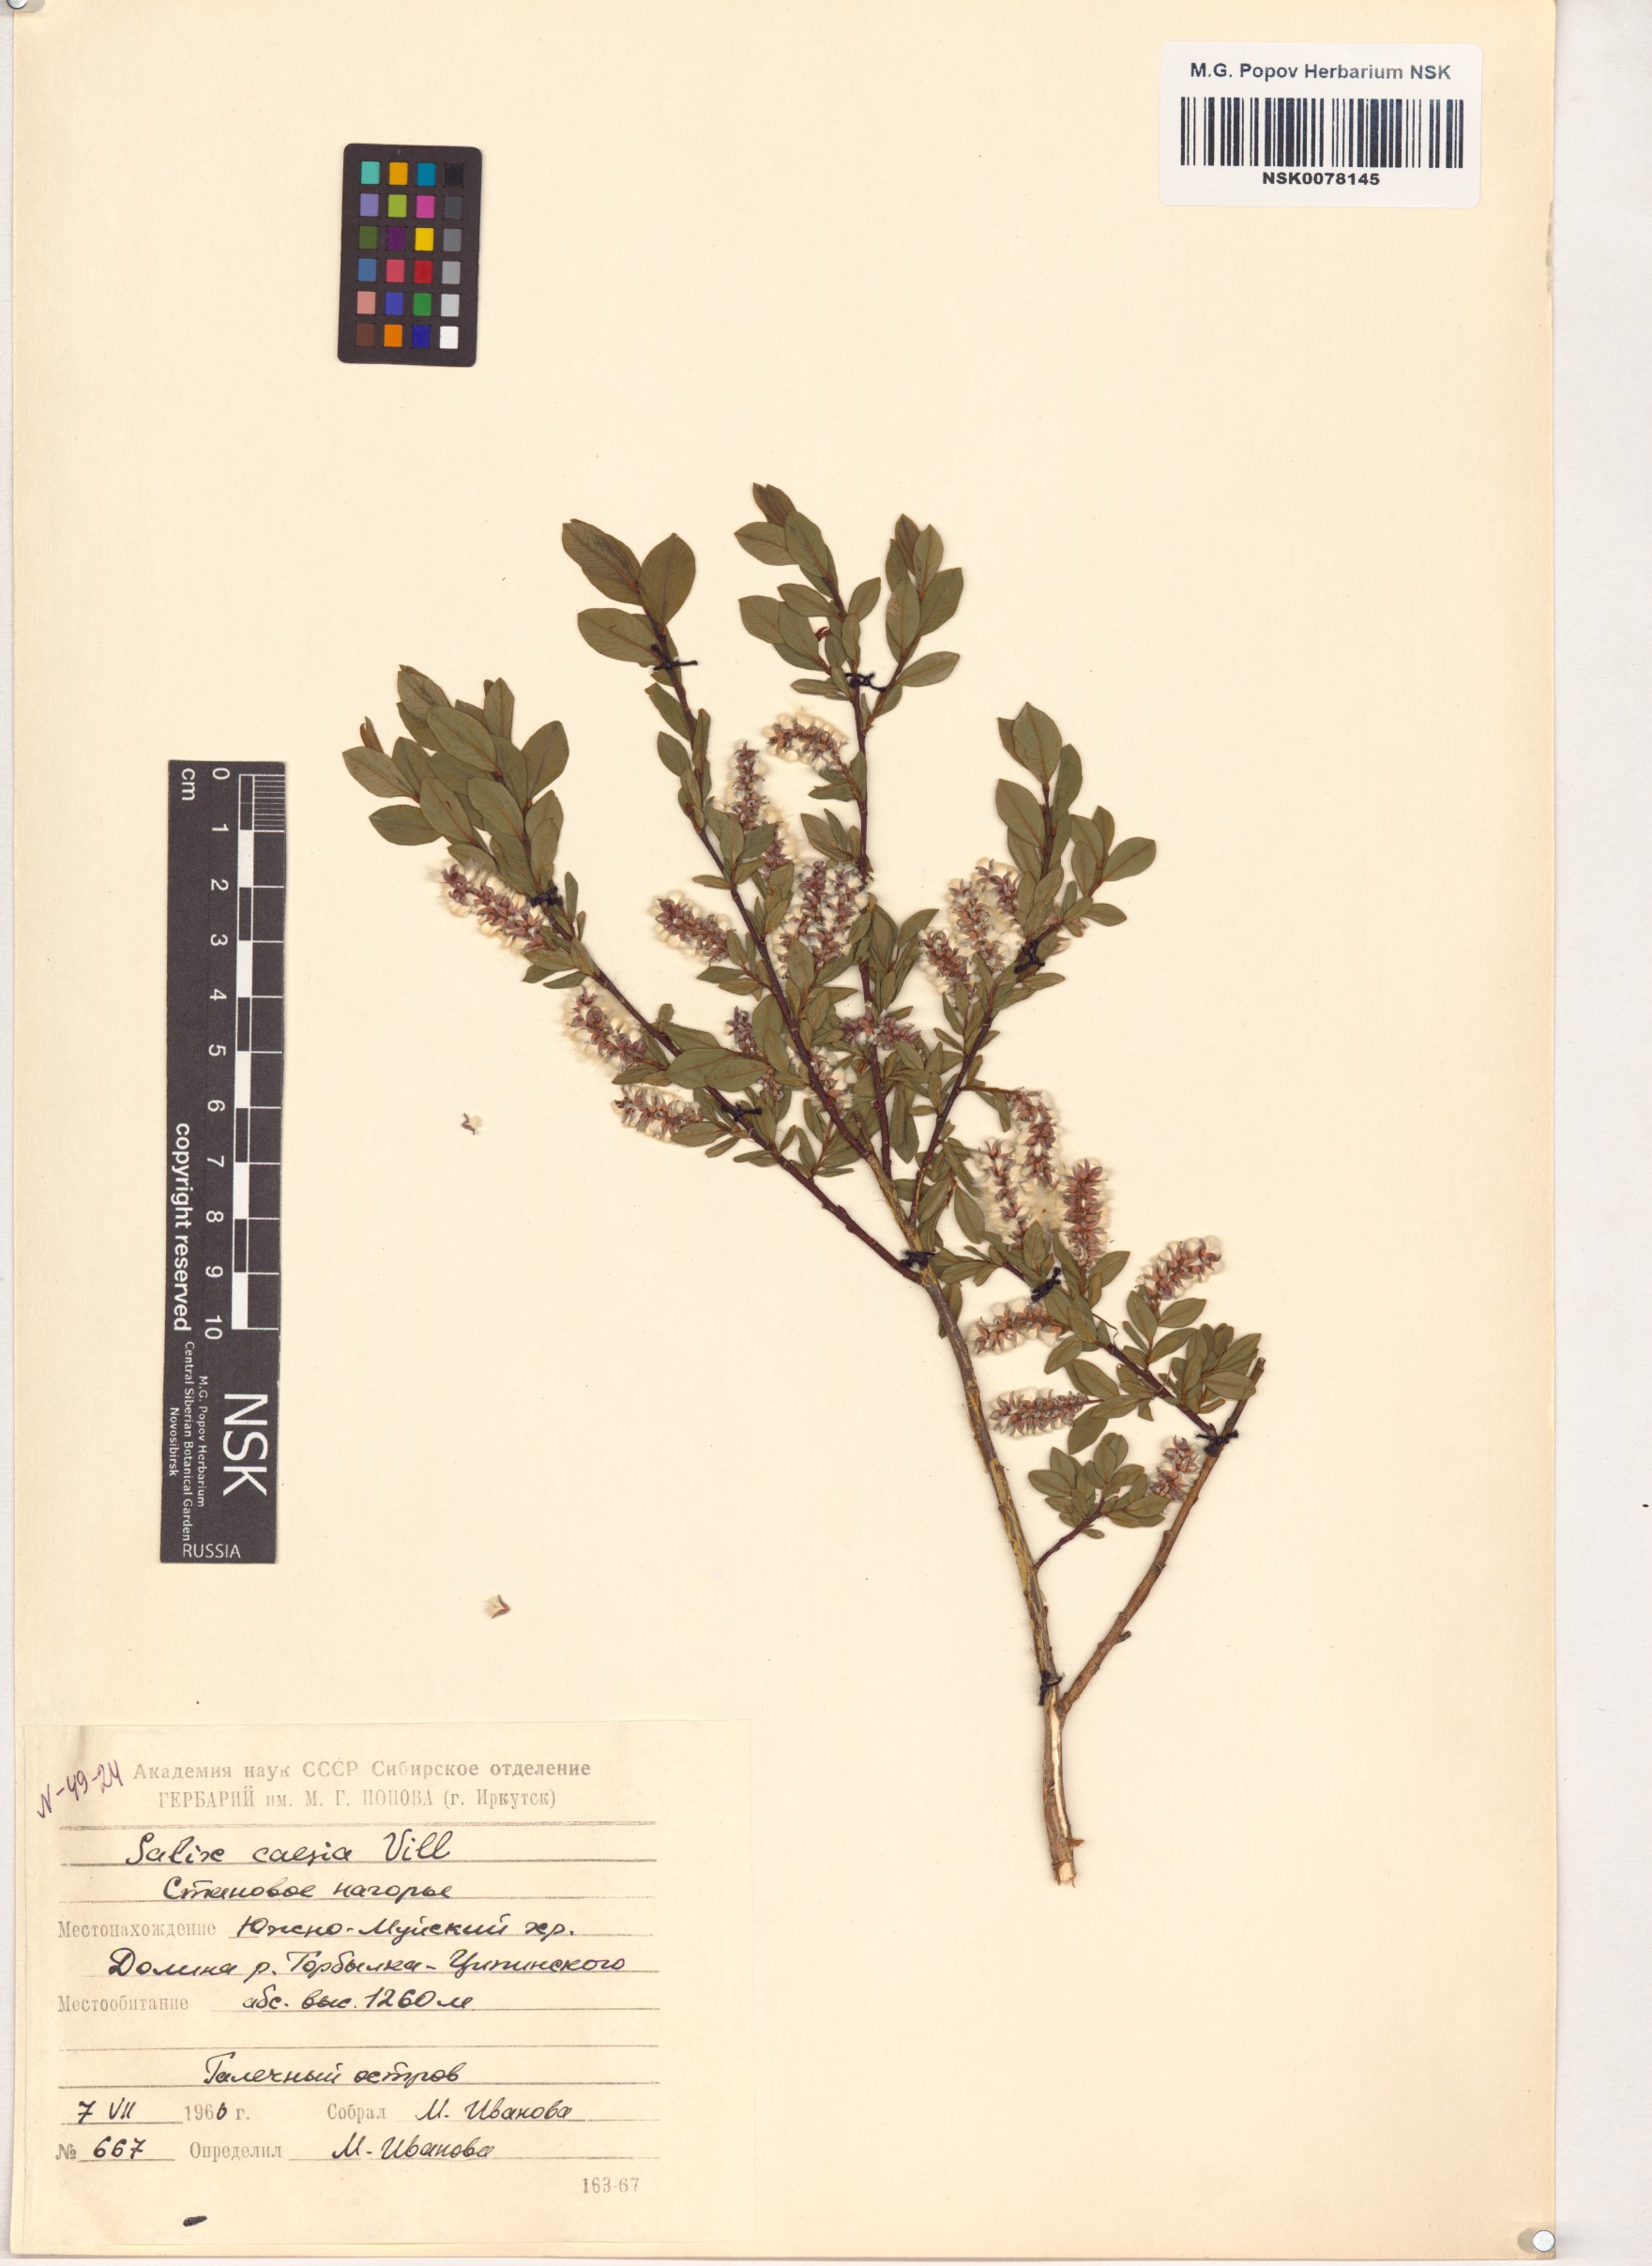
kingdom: Plantae
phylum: Tracheophyta
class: Magnoliopsida
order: Malpighiales
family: Salicaceae
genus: Salix
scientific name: Salix caesia
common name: Blue willow
